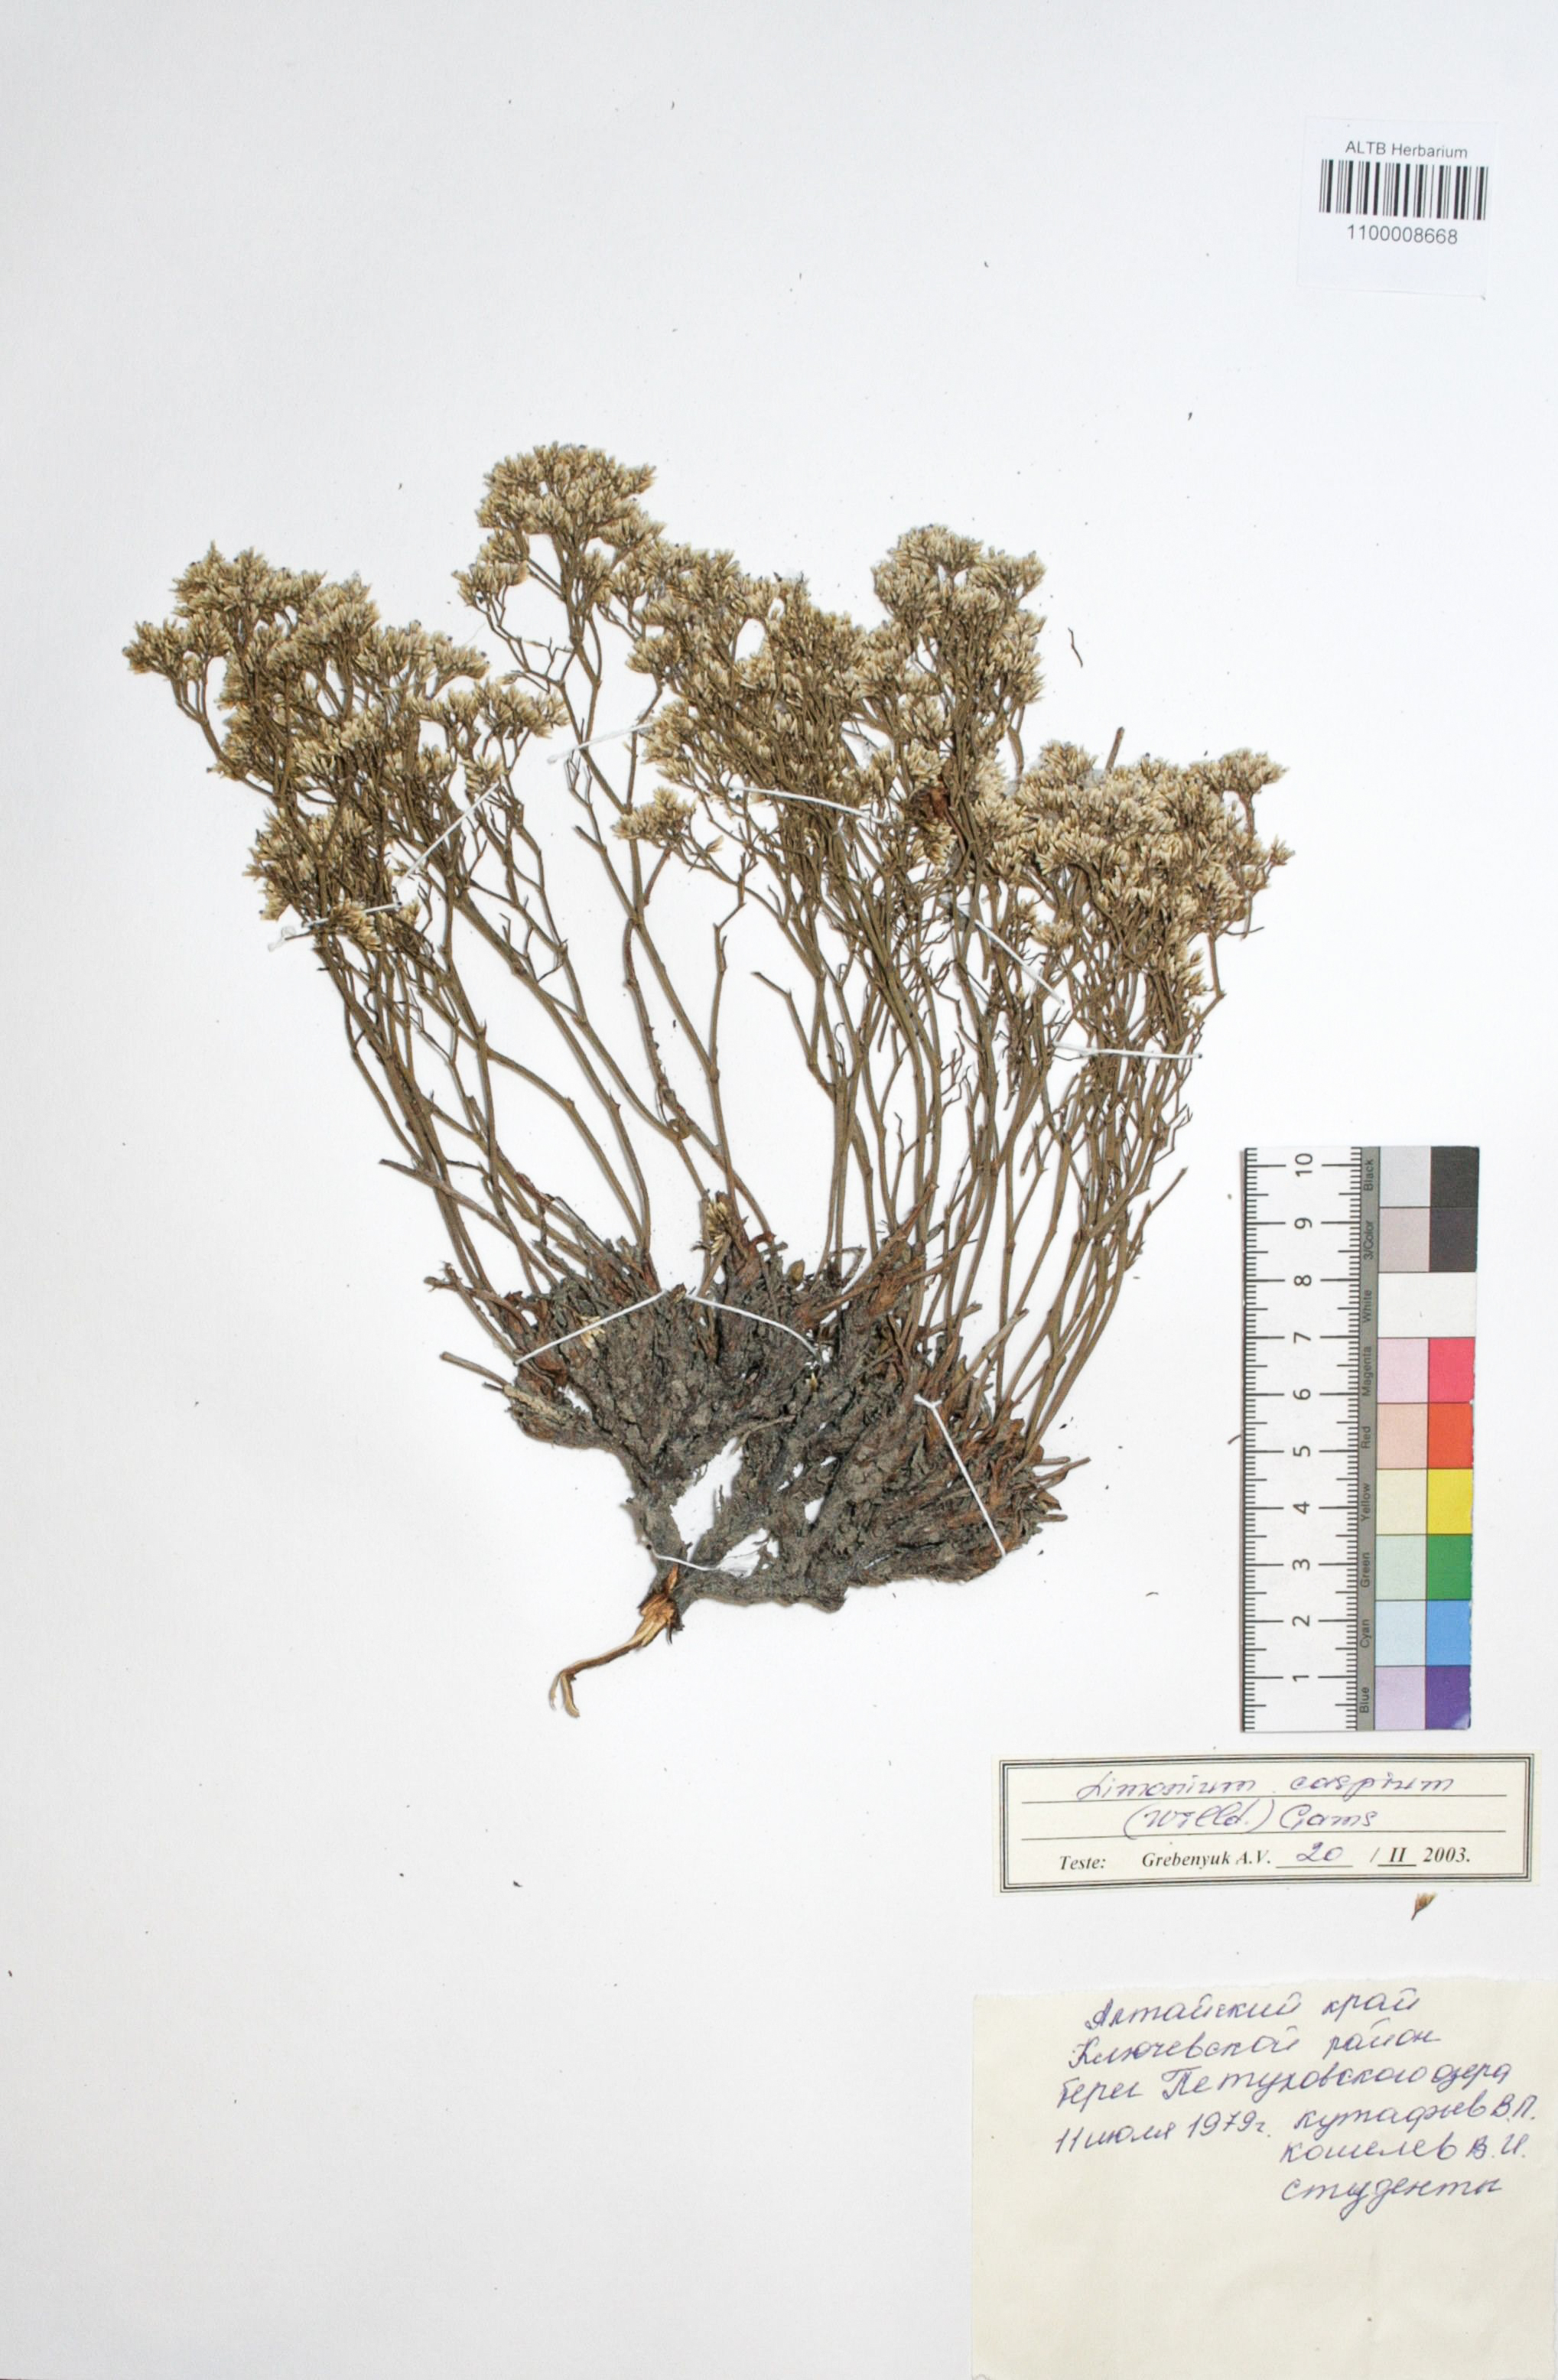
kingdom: Plantae
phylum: Tracheophyta
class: Magnoliopsida
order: Caryophyllales
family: Plumbaginaceae
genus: Limonium
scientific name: Limonium bellidifolium
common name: Matted sea-lavender
